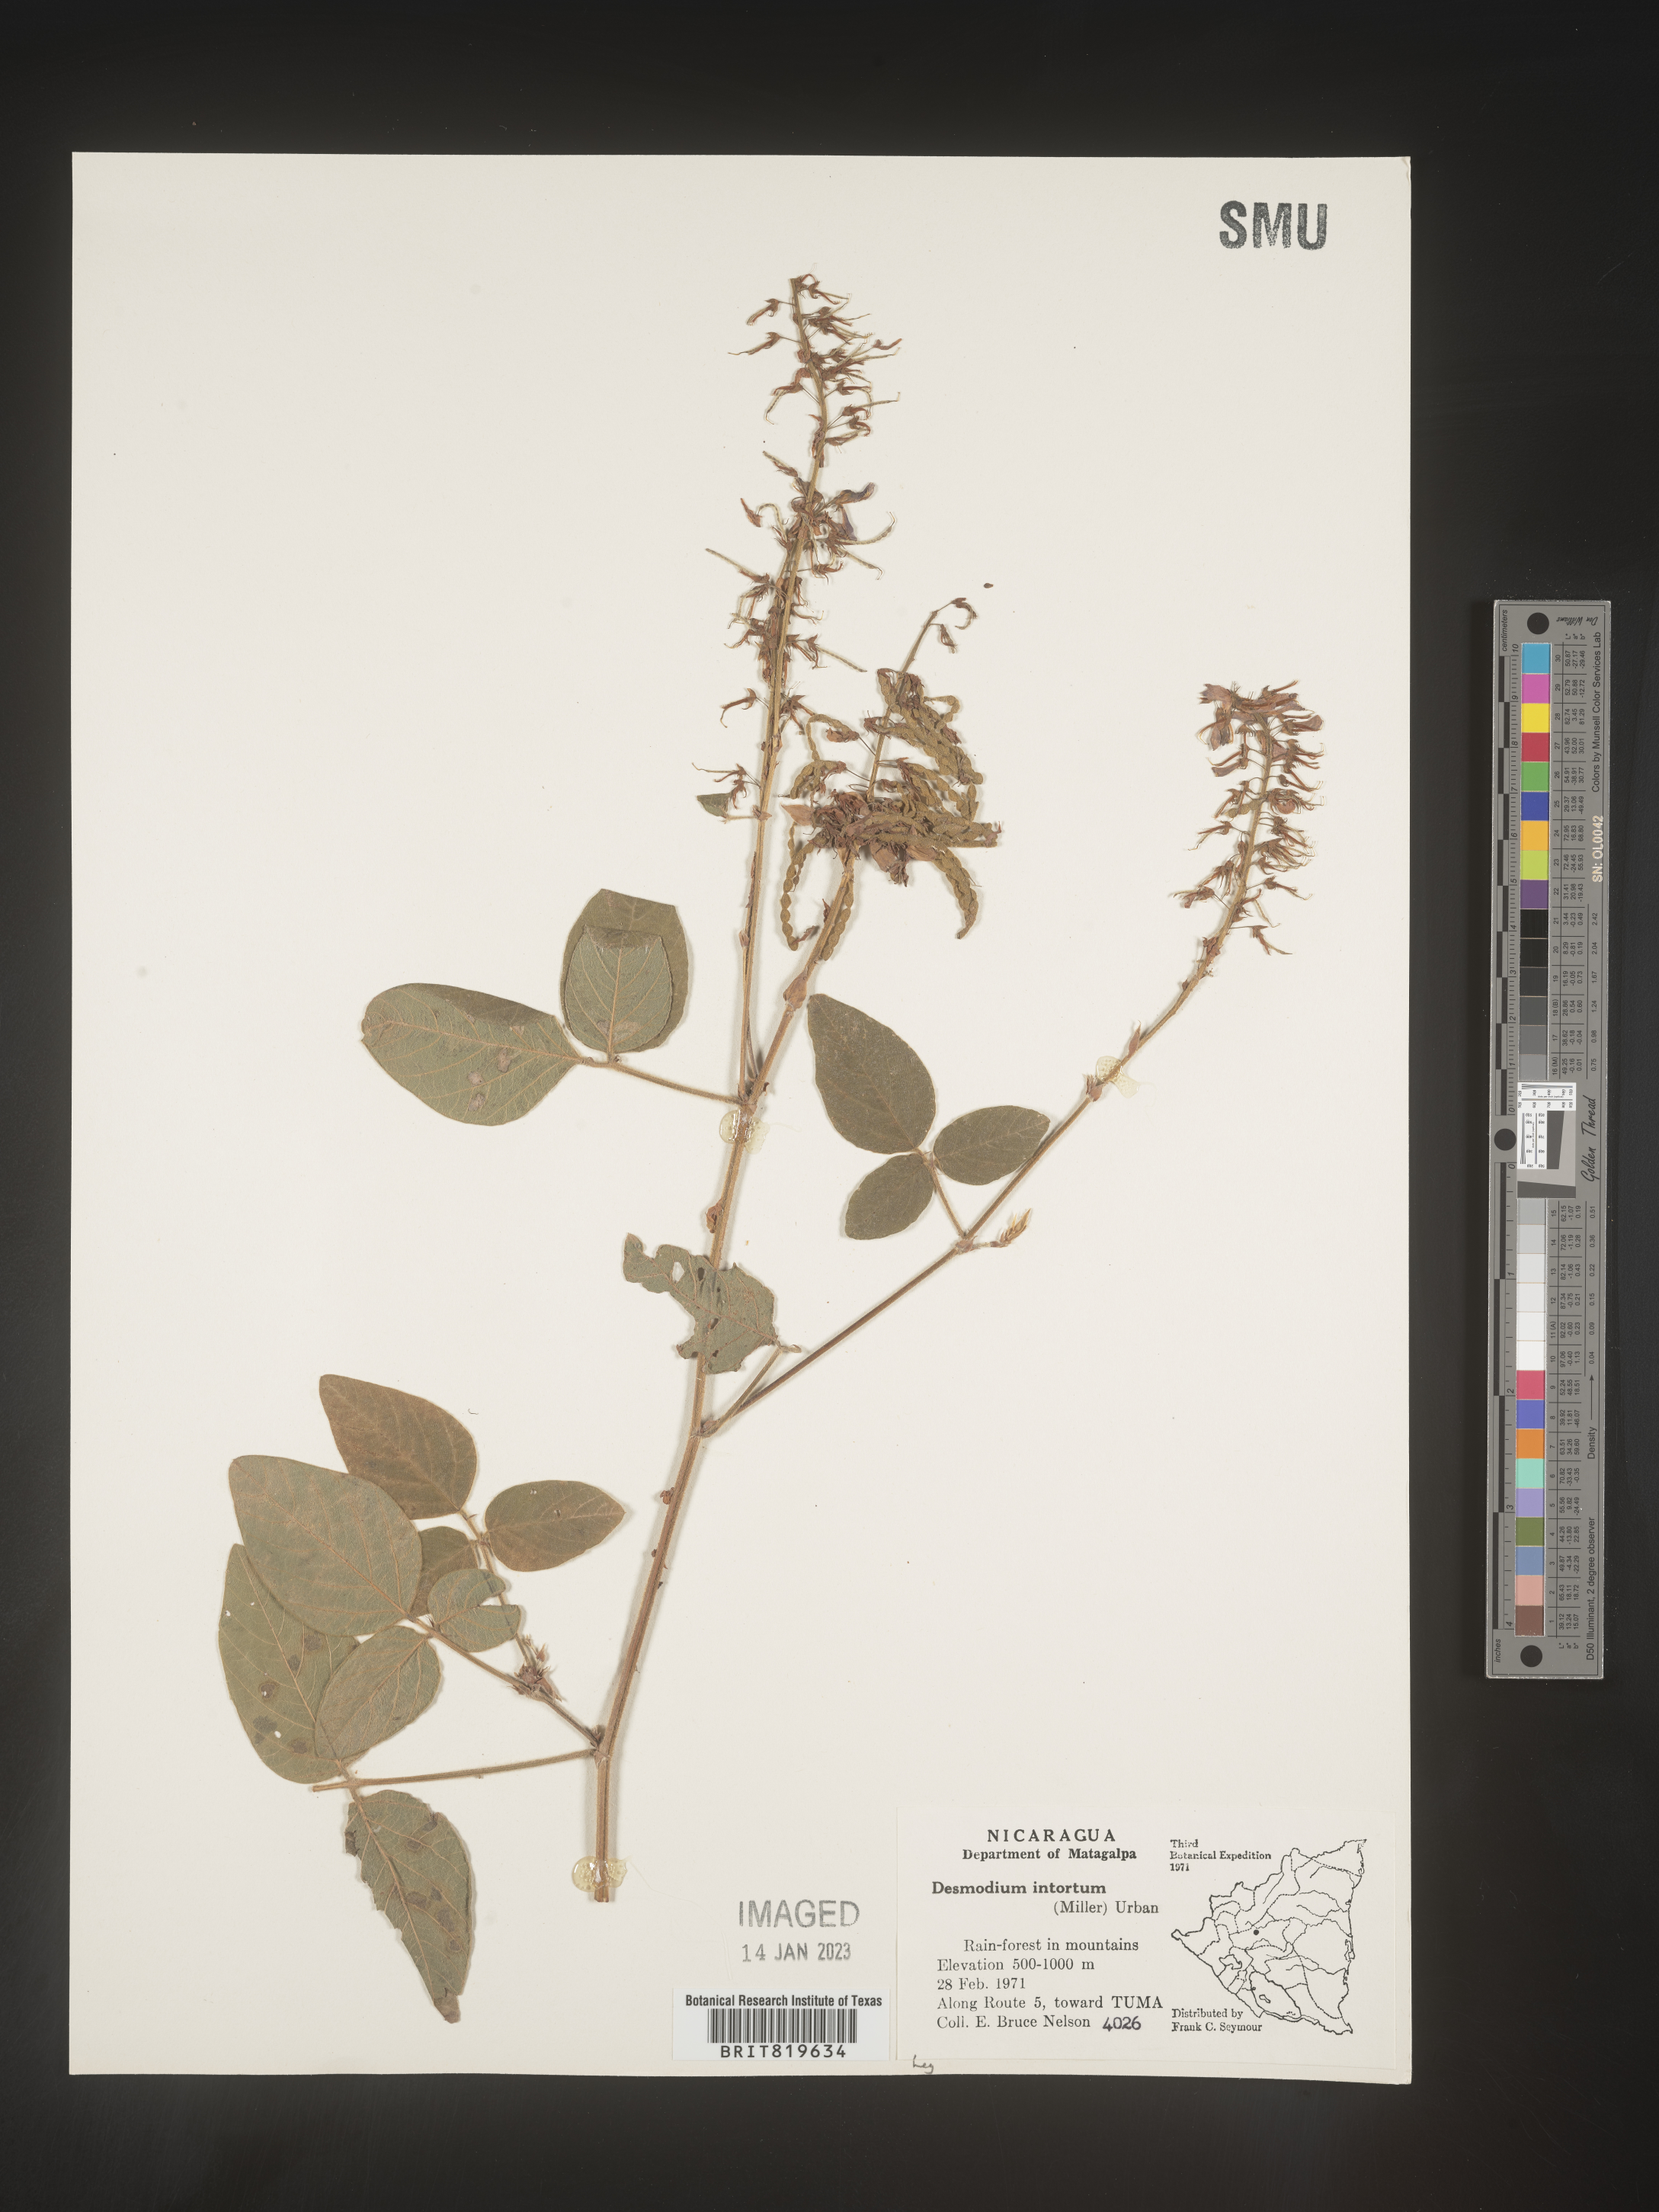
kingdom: Plantae
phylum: Tracheophyta
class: Magnoliopsida
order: Fabales
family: Fabaceae
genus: Desmodium
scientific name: Desmodium
